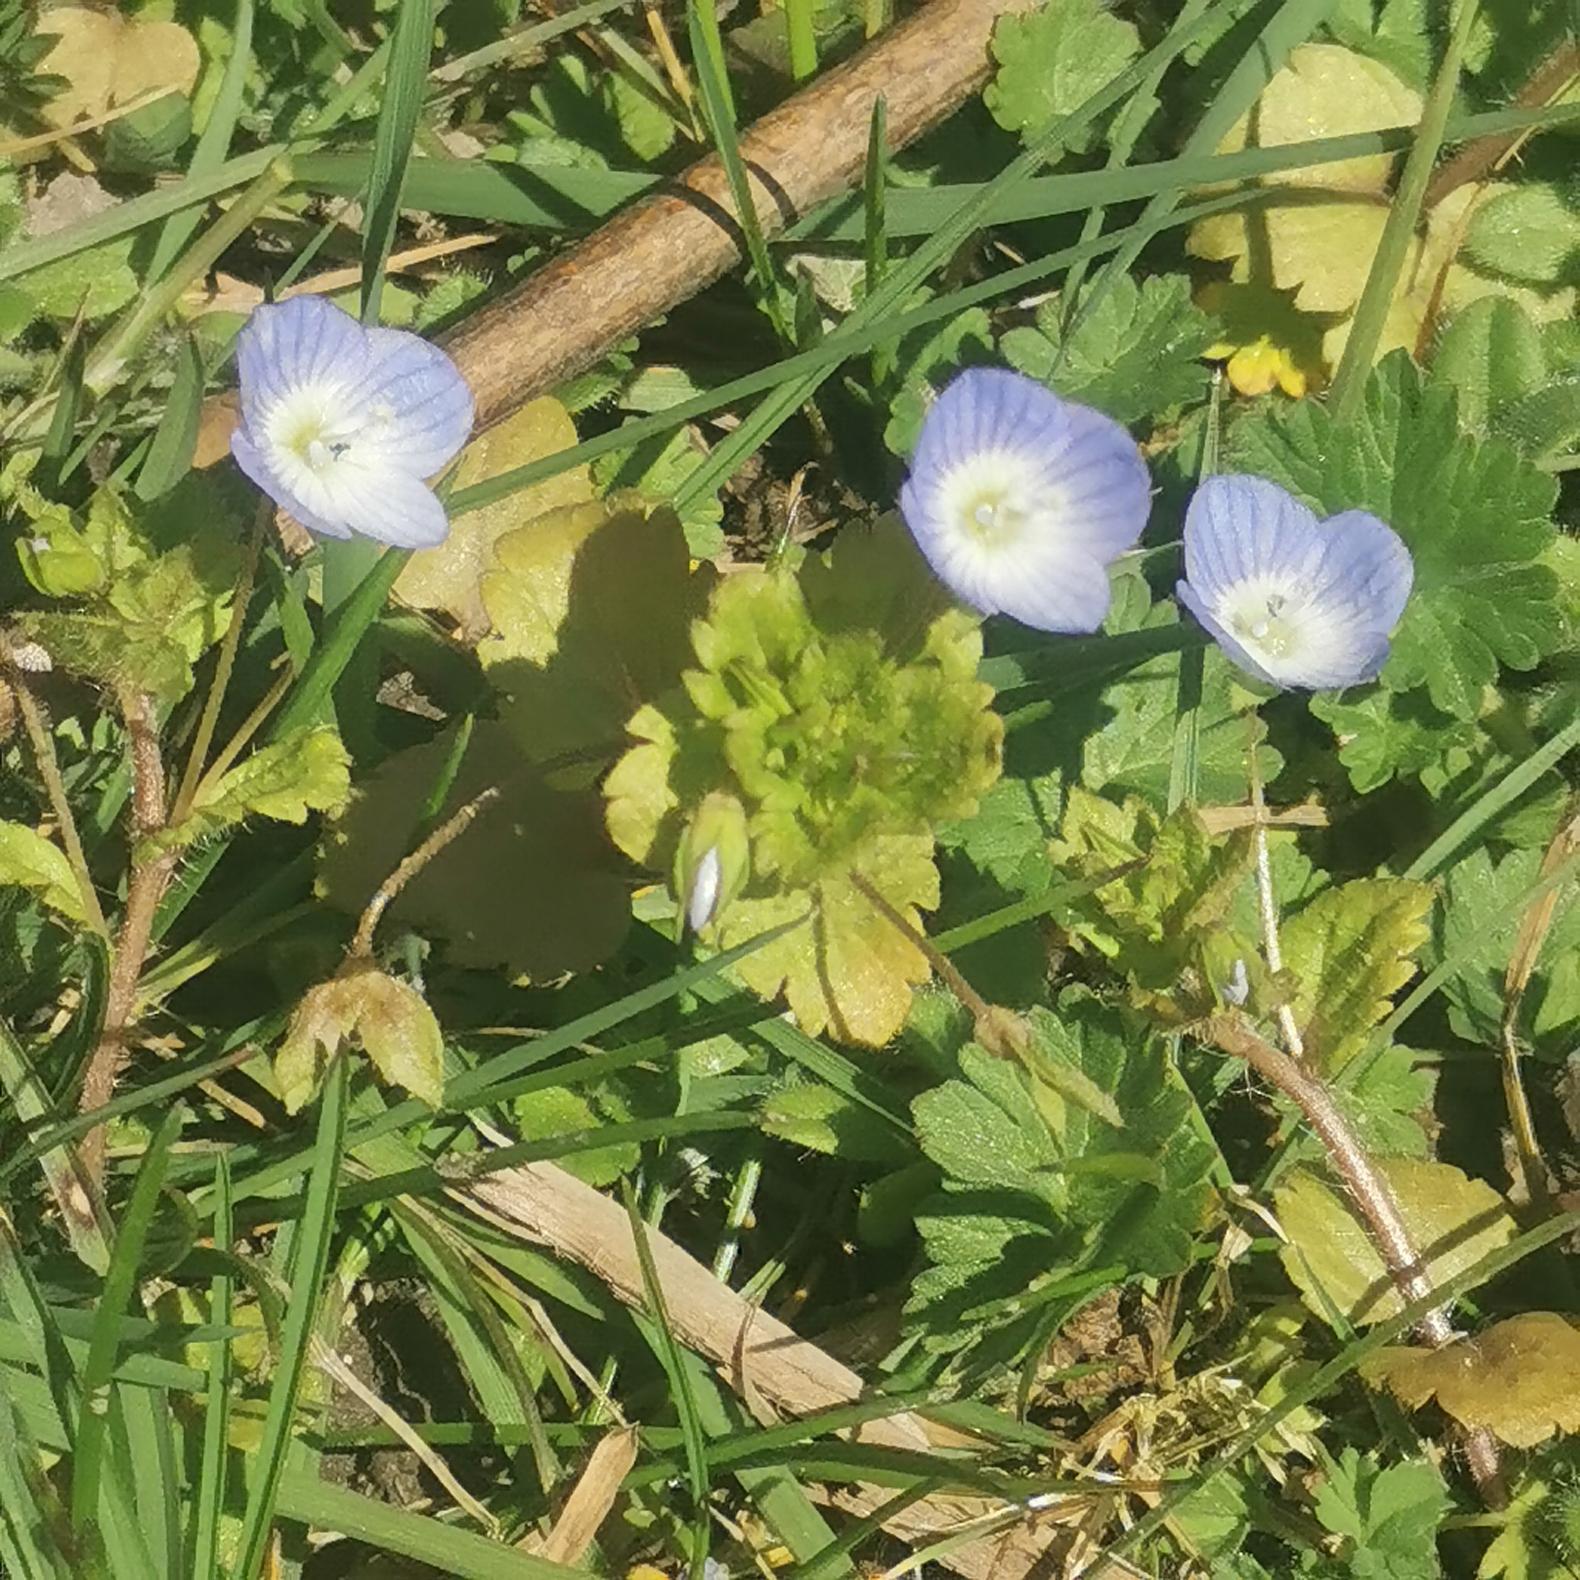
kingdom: Plantae
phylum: Tracheophyta
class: Magnoliopsida
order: Lamiales
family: Plantaginaceae
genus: Veronica
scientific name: Veronica persica
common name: Storkronet ærenpris
